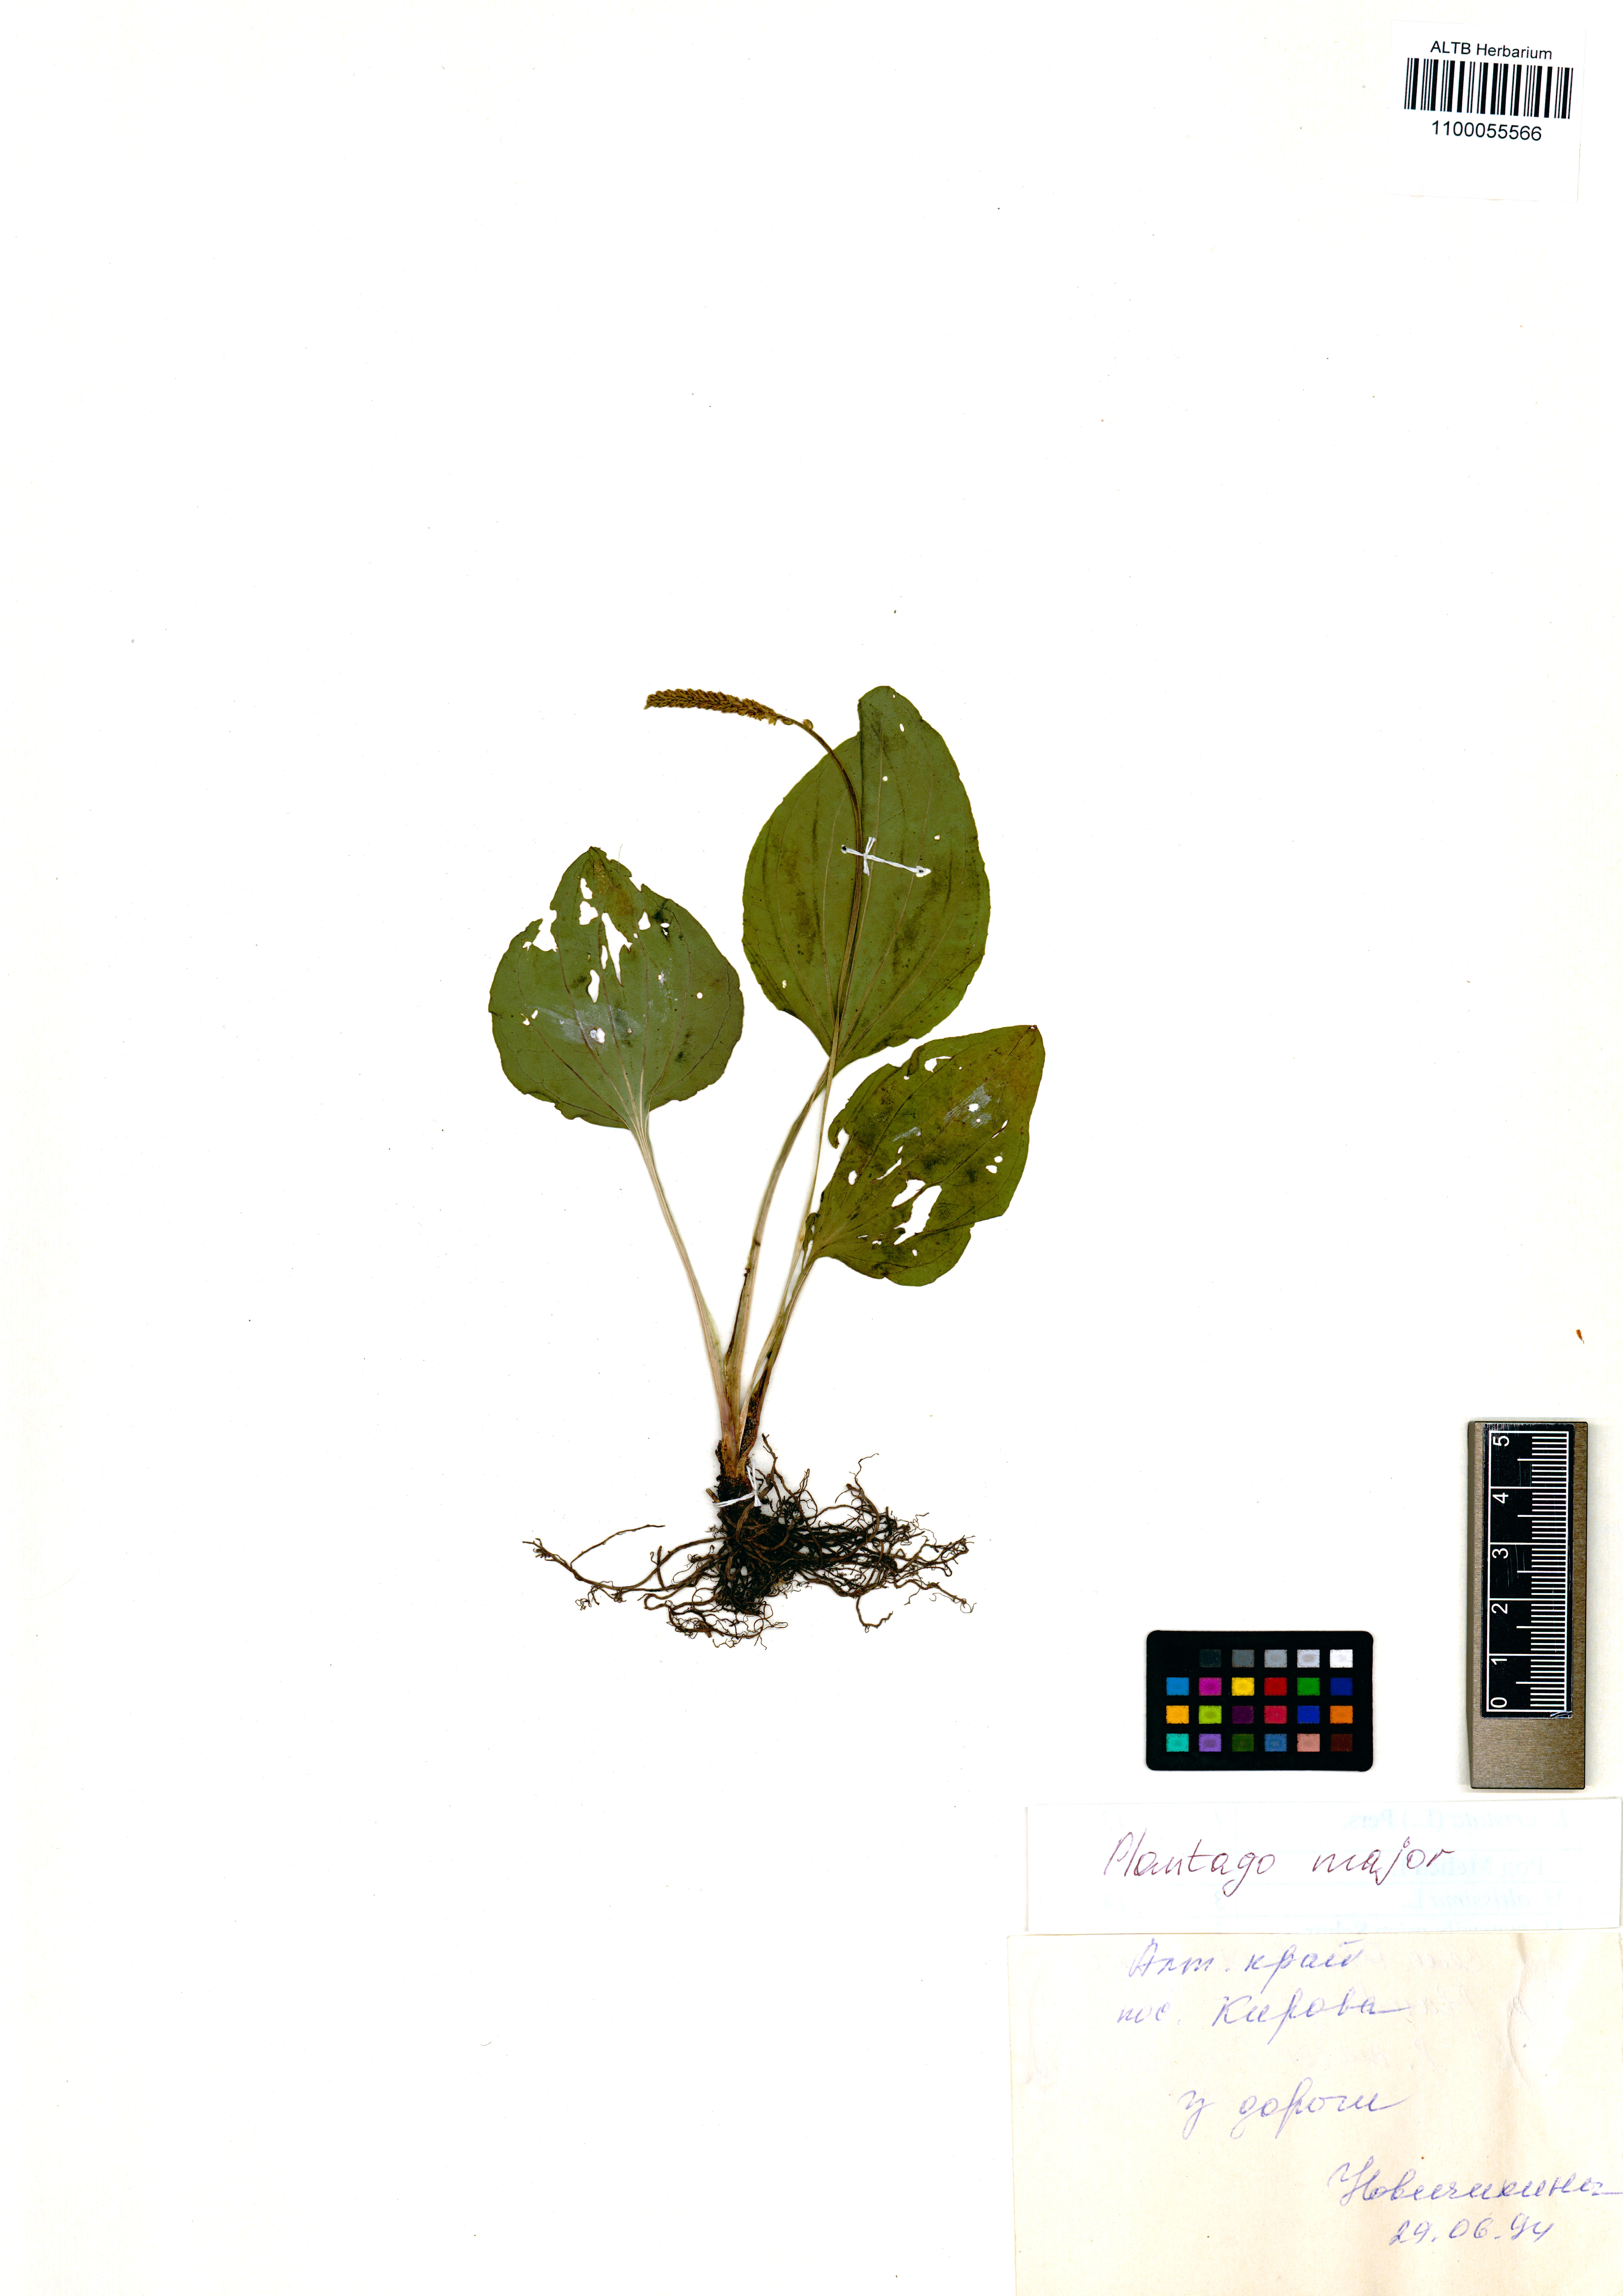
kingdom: Plantae
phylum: Tracheophyta
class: Magnoliopsida
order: Lamiales
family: Plantaginaceae
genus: Plantago
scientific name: Plantago major
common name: Common plantain
